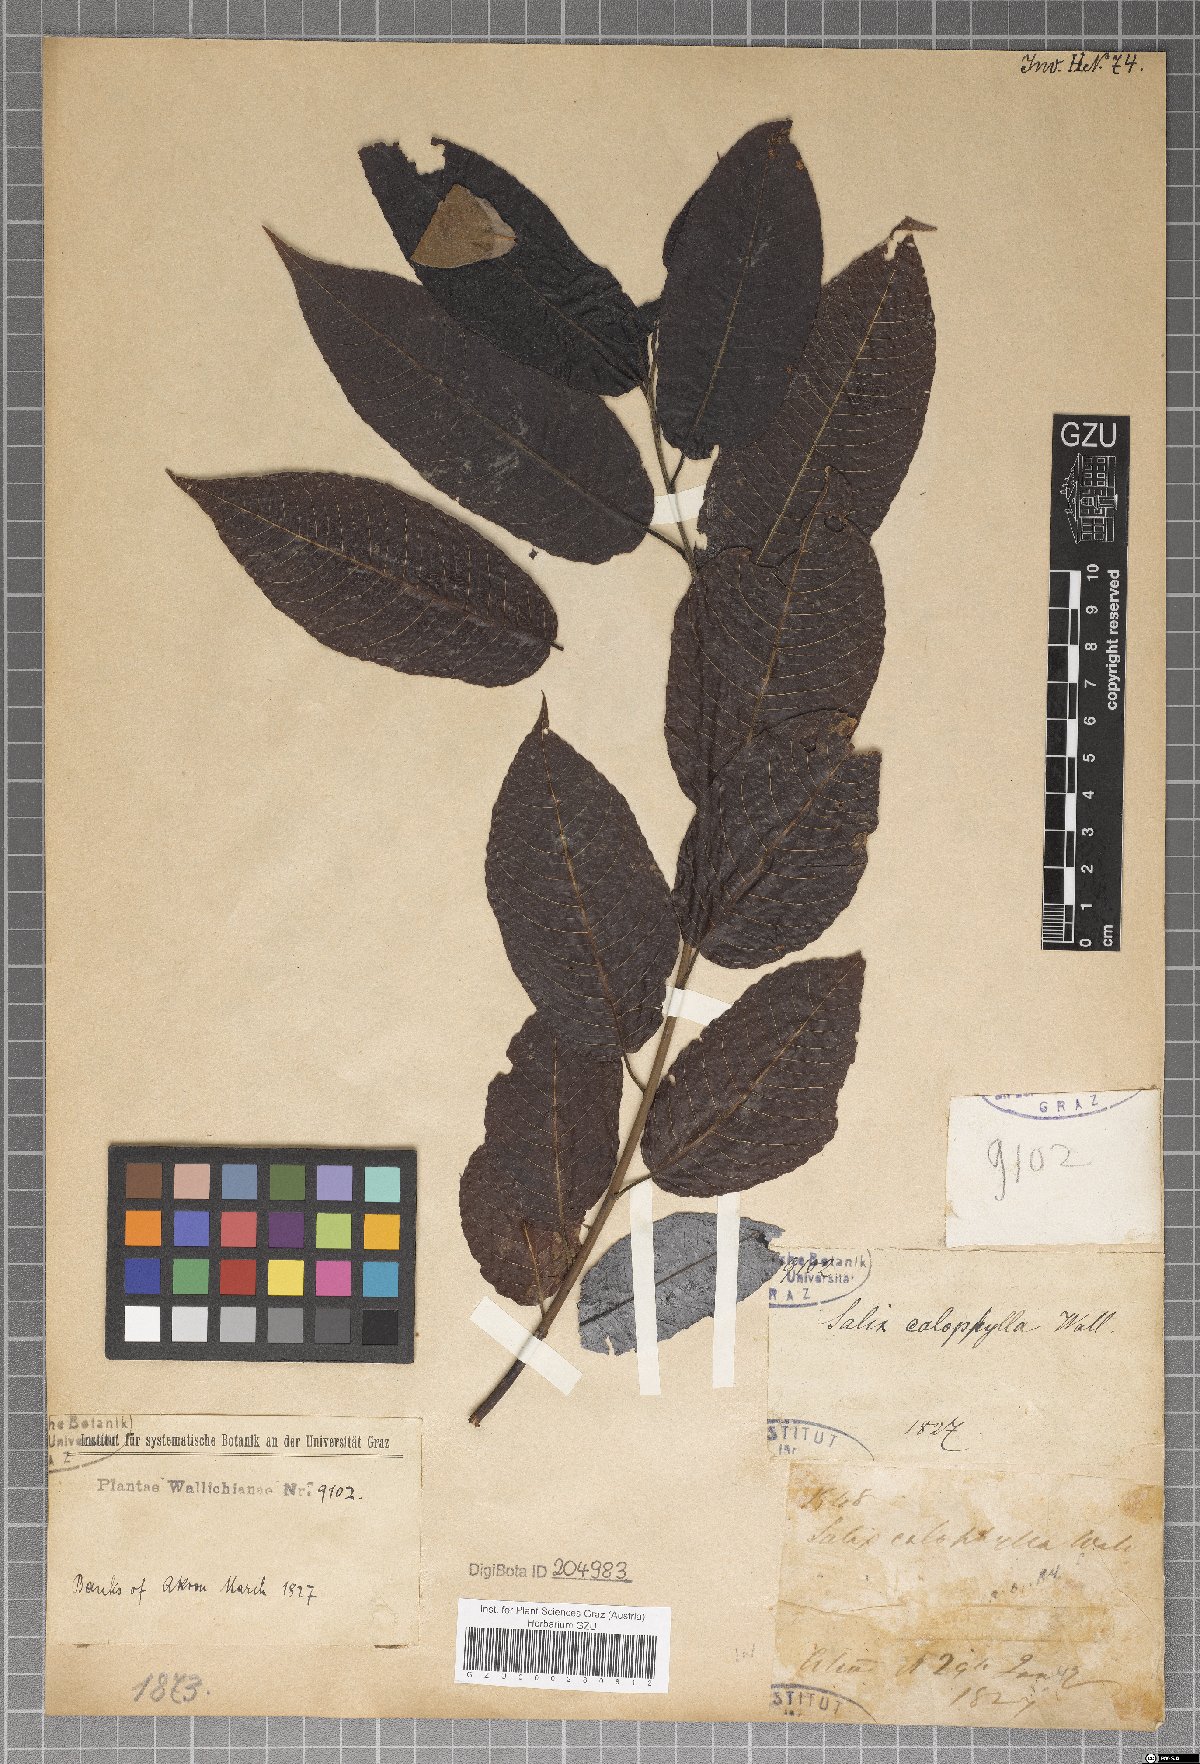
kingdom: Plantae
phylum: Tracheophyta
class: Magnoliopsida
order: Malpighiales
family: Salicaceae
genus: Salix
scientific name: Salix calophylla
